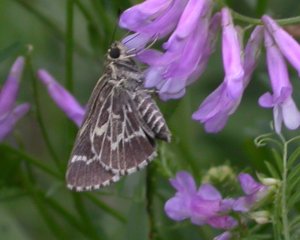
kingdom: Animalia
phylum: Arthropoda
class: Insecta
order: Lepidoptera
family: Hesperiidae
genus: Mastor
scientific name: Mastor aesculapius
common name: Lace-winged Roadside-Skipper
